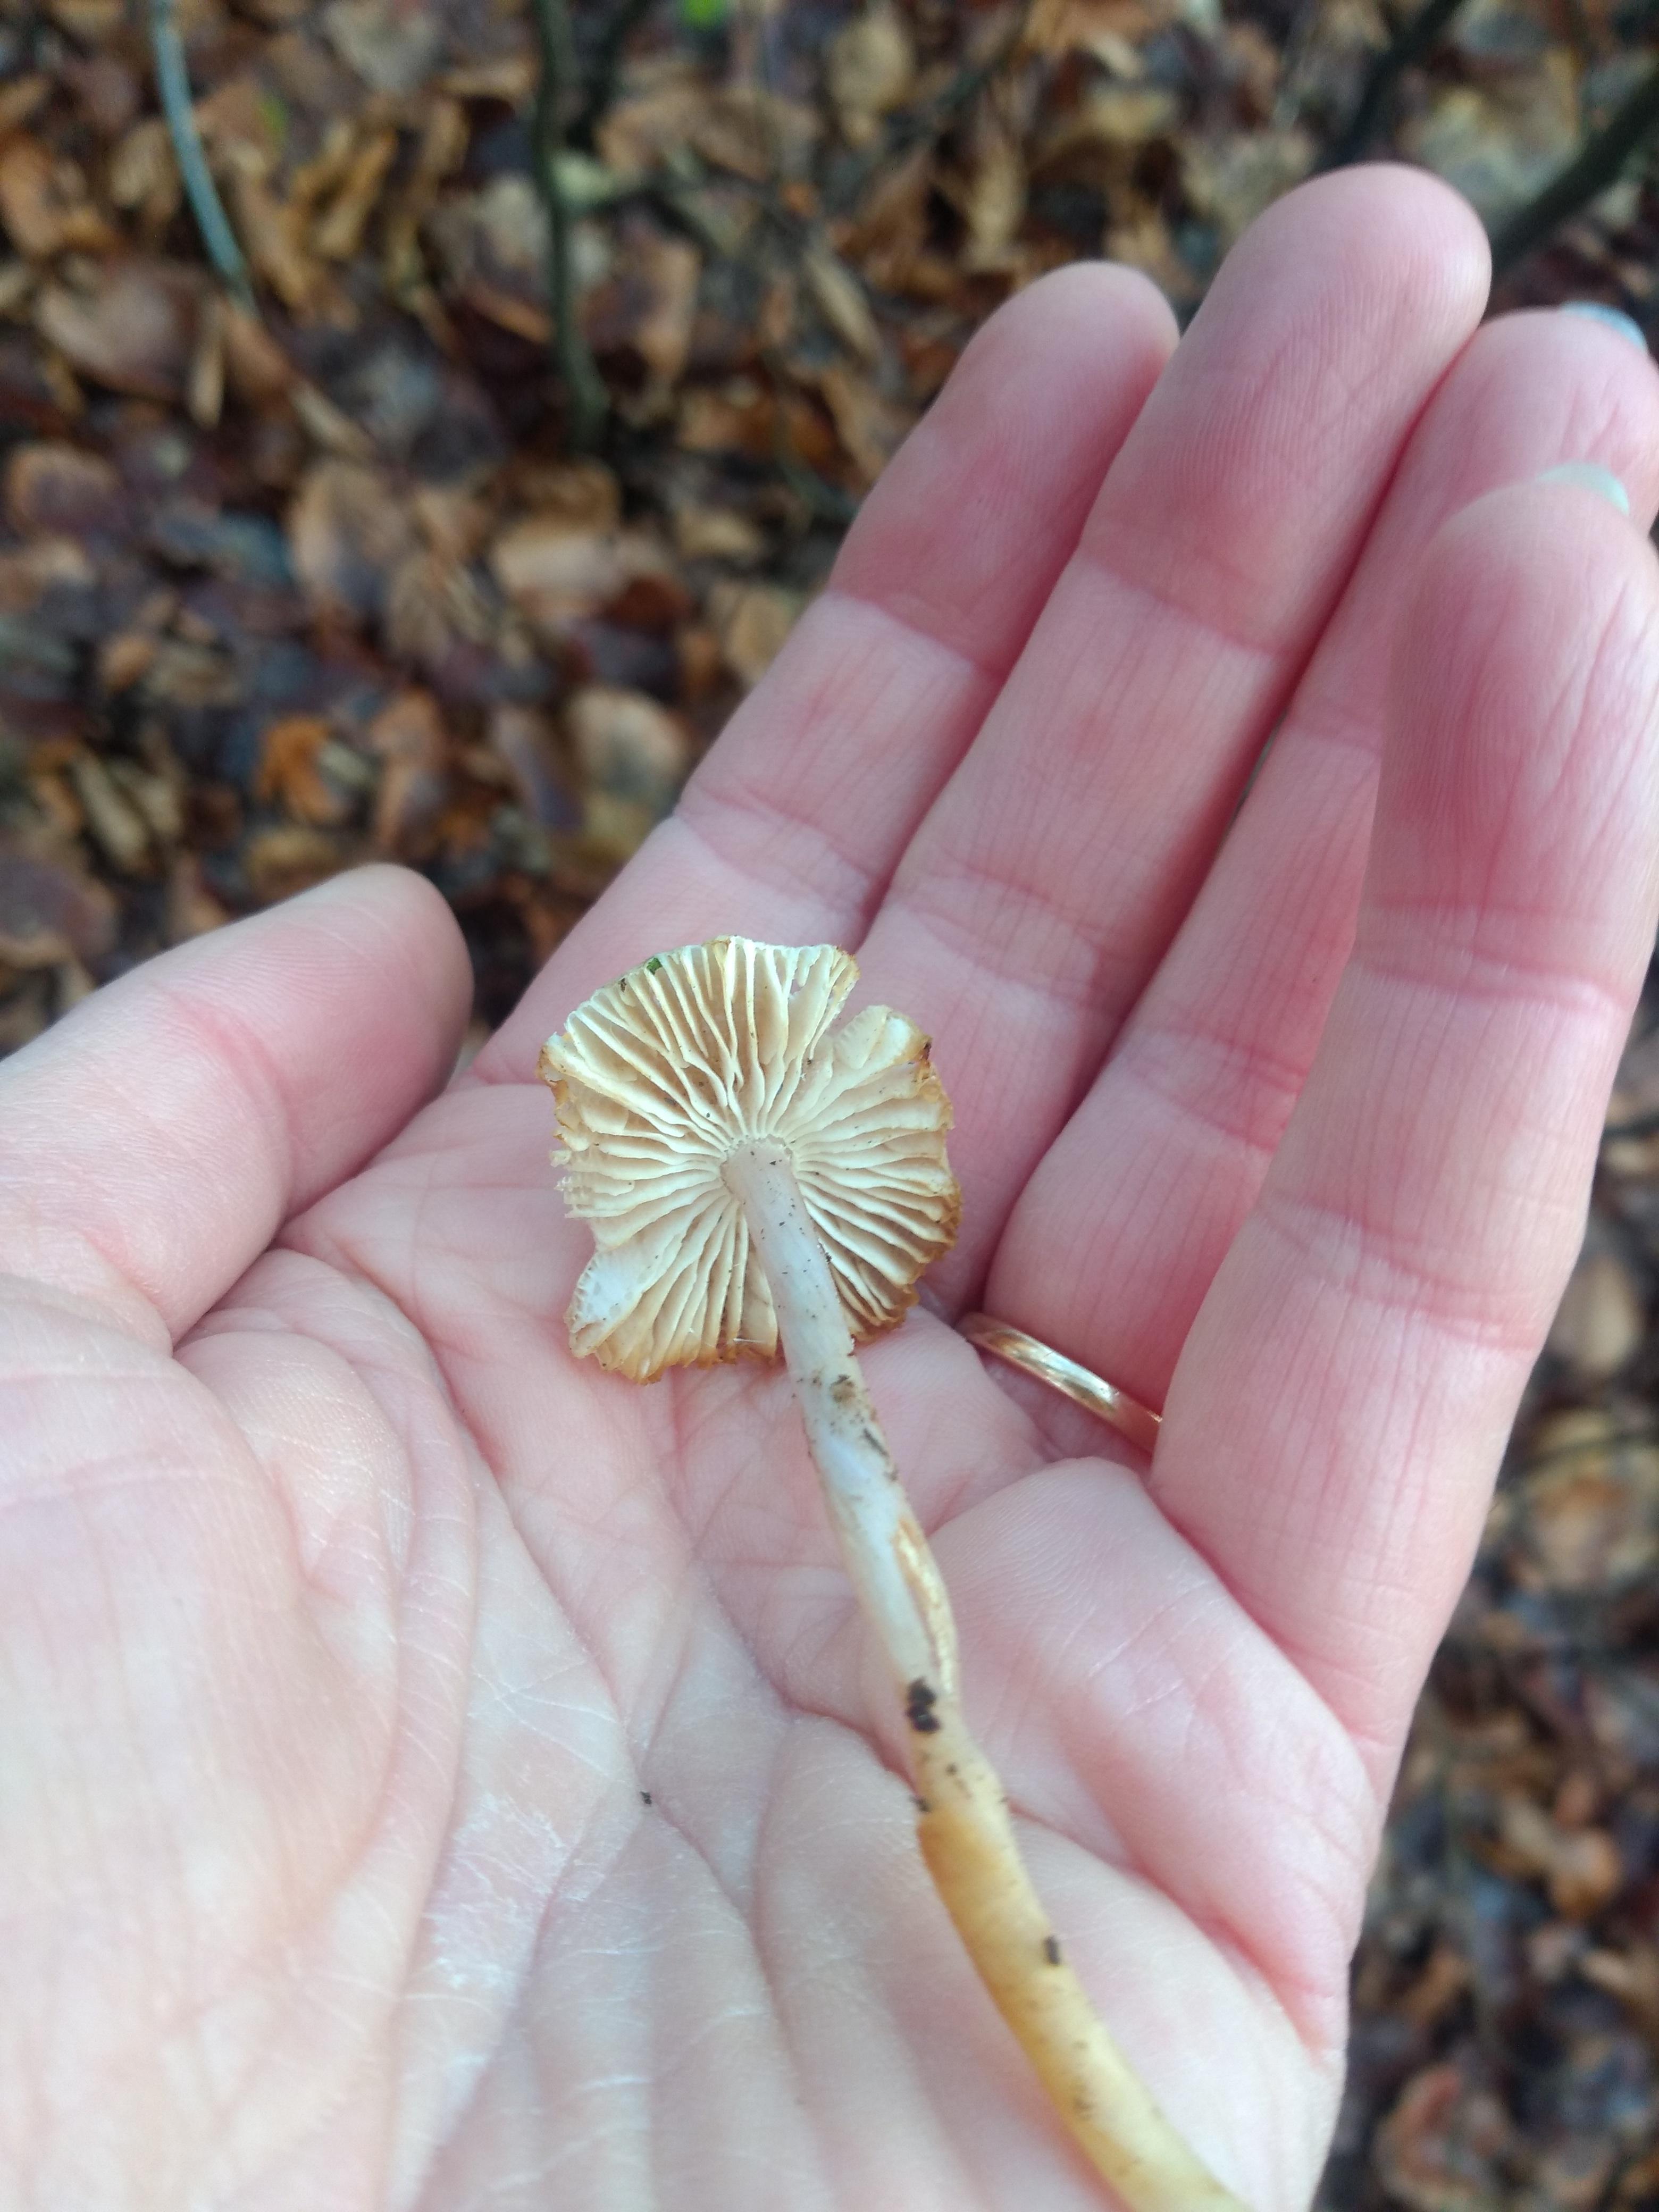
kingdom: Fungi
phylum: Basidiomycota
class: Agaricomycetes
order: Agaricales
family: Mycenaceae
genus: Mycena
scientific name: Mycena
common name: huesvamp
